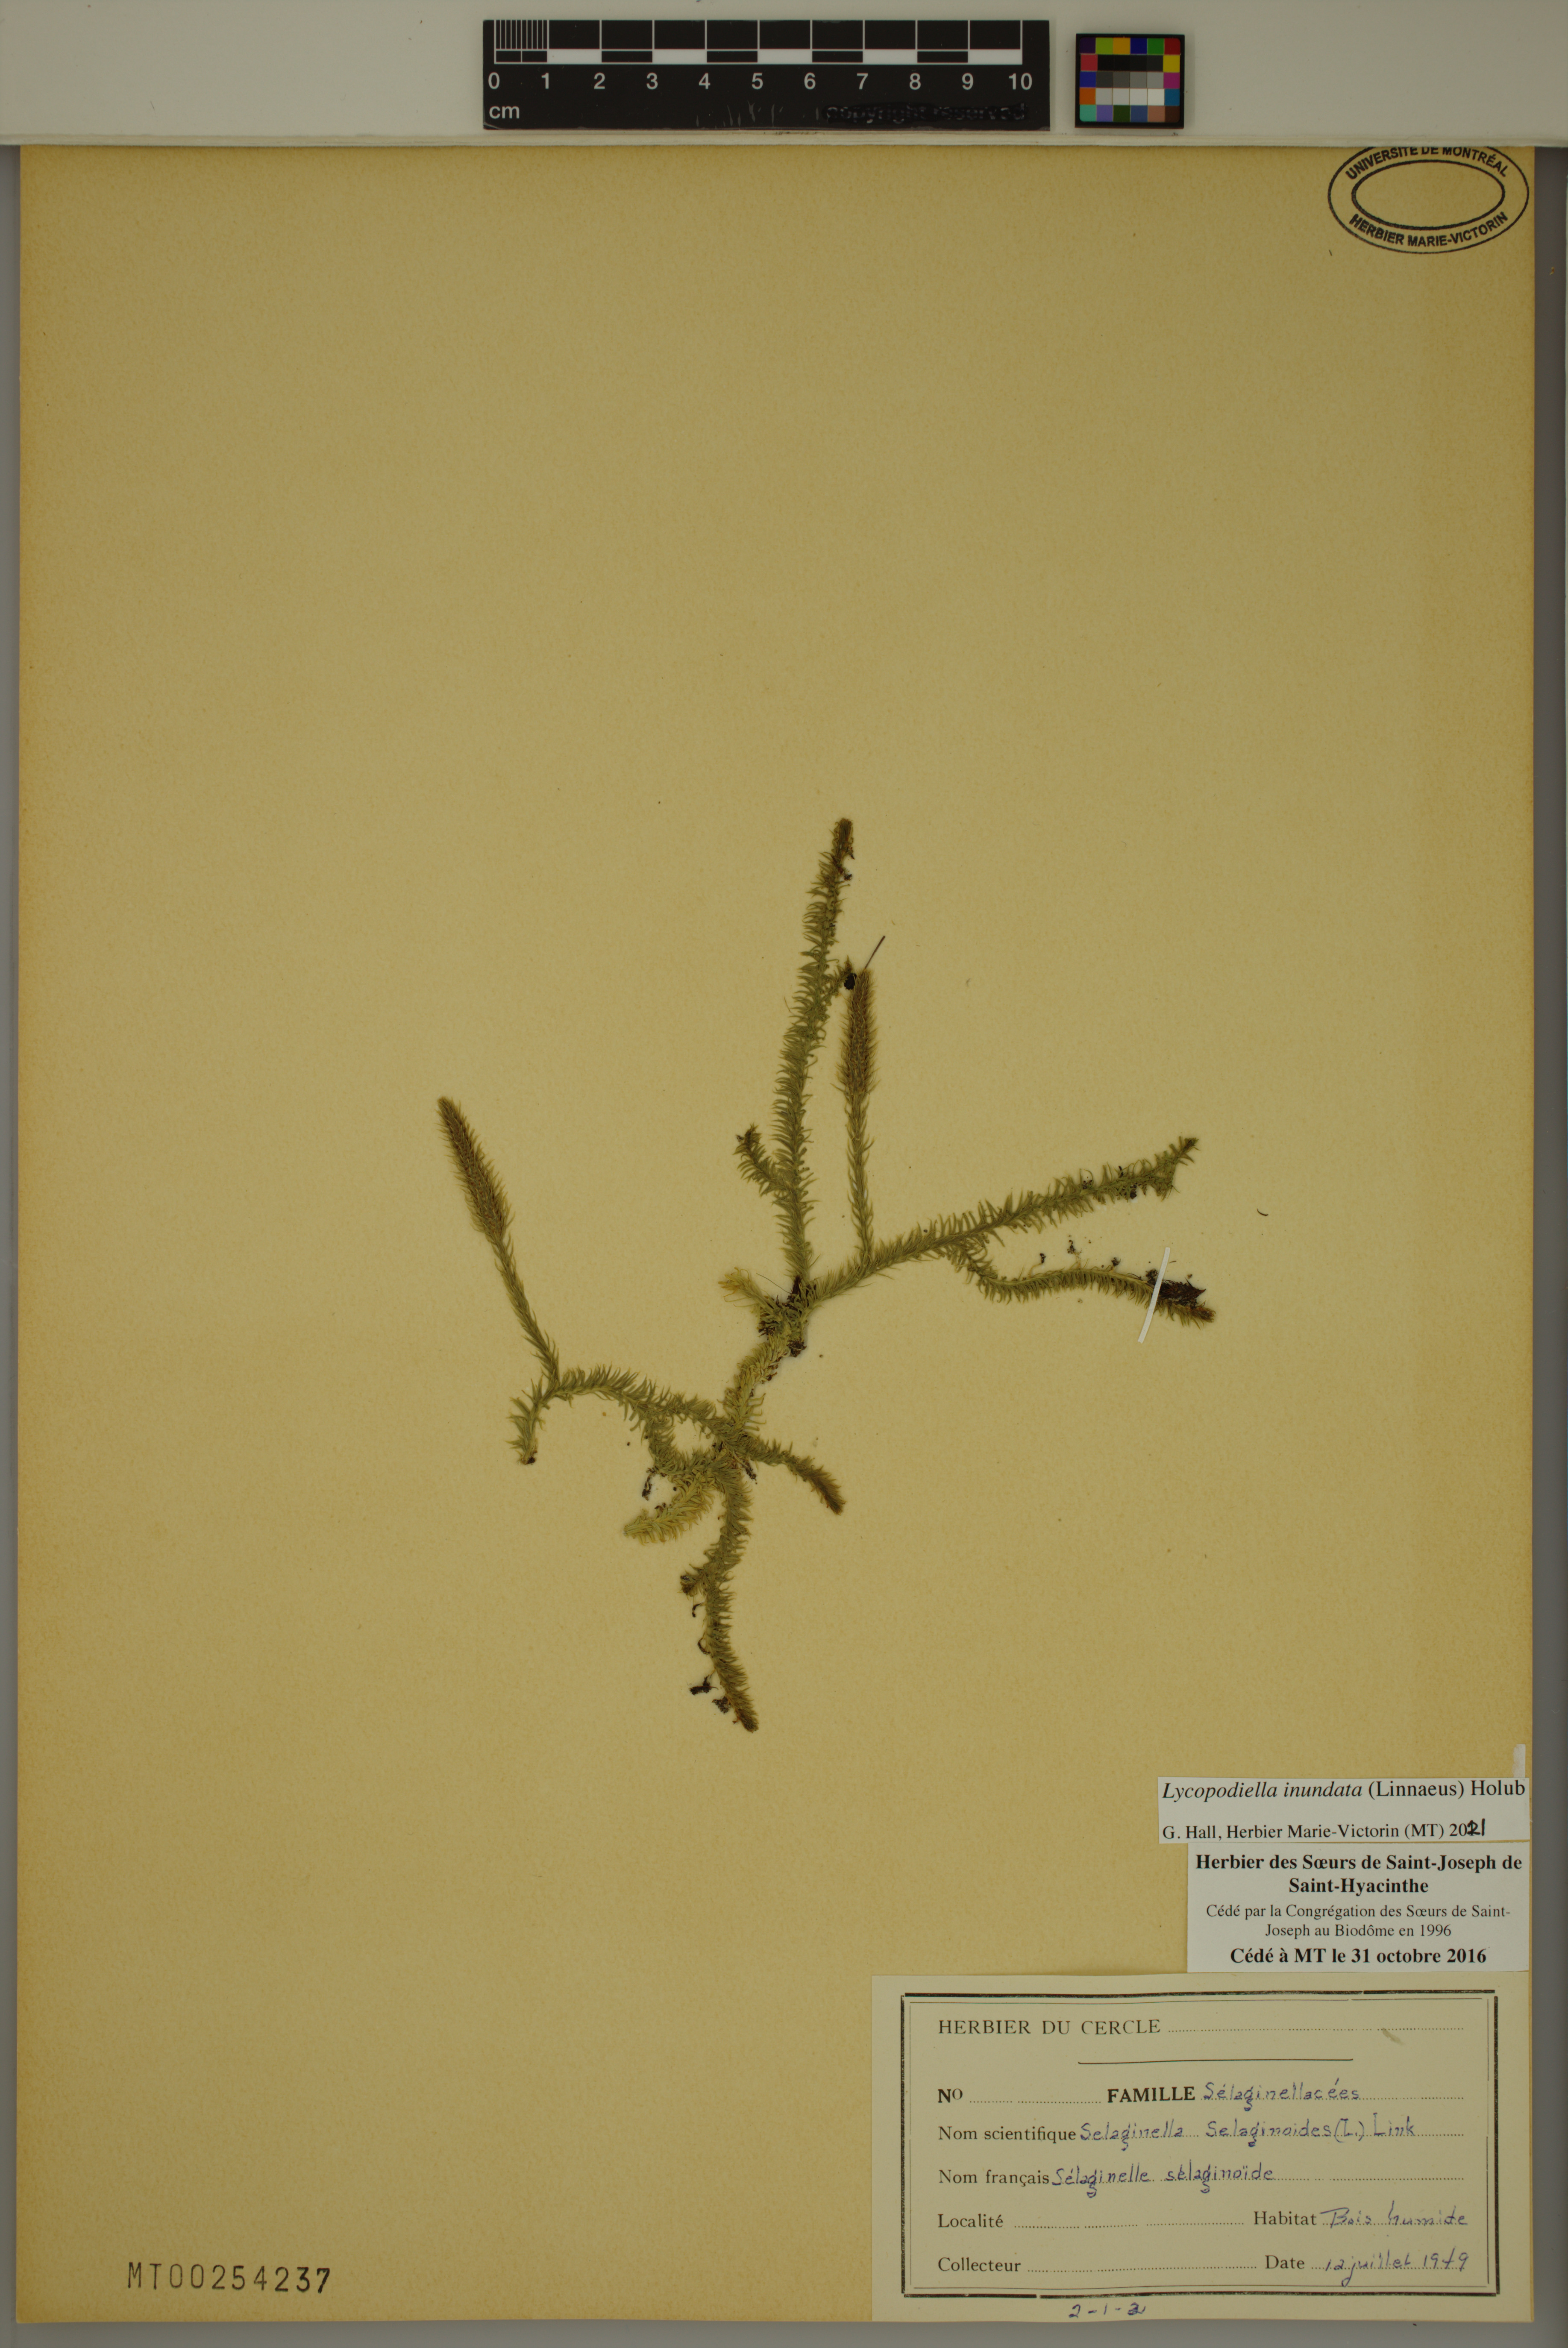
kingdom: Plantae
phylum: Tracheophyta
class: Lycopodiopsida
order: Lycopodiales
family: Lycopodiaceae
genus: Lycopodiella
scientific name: Lycopodiella inundata
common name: Marsh clubmoss
